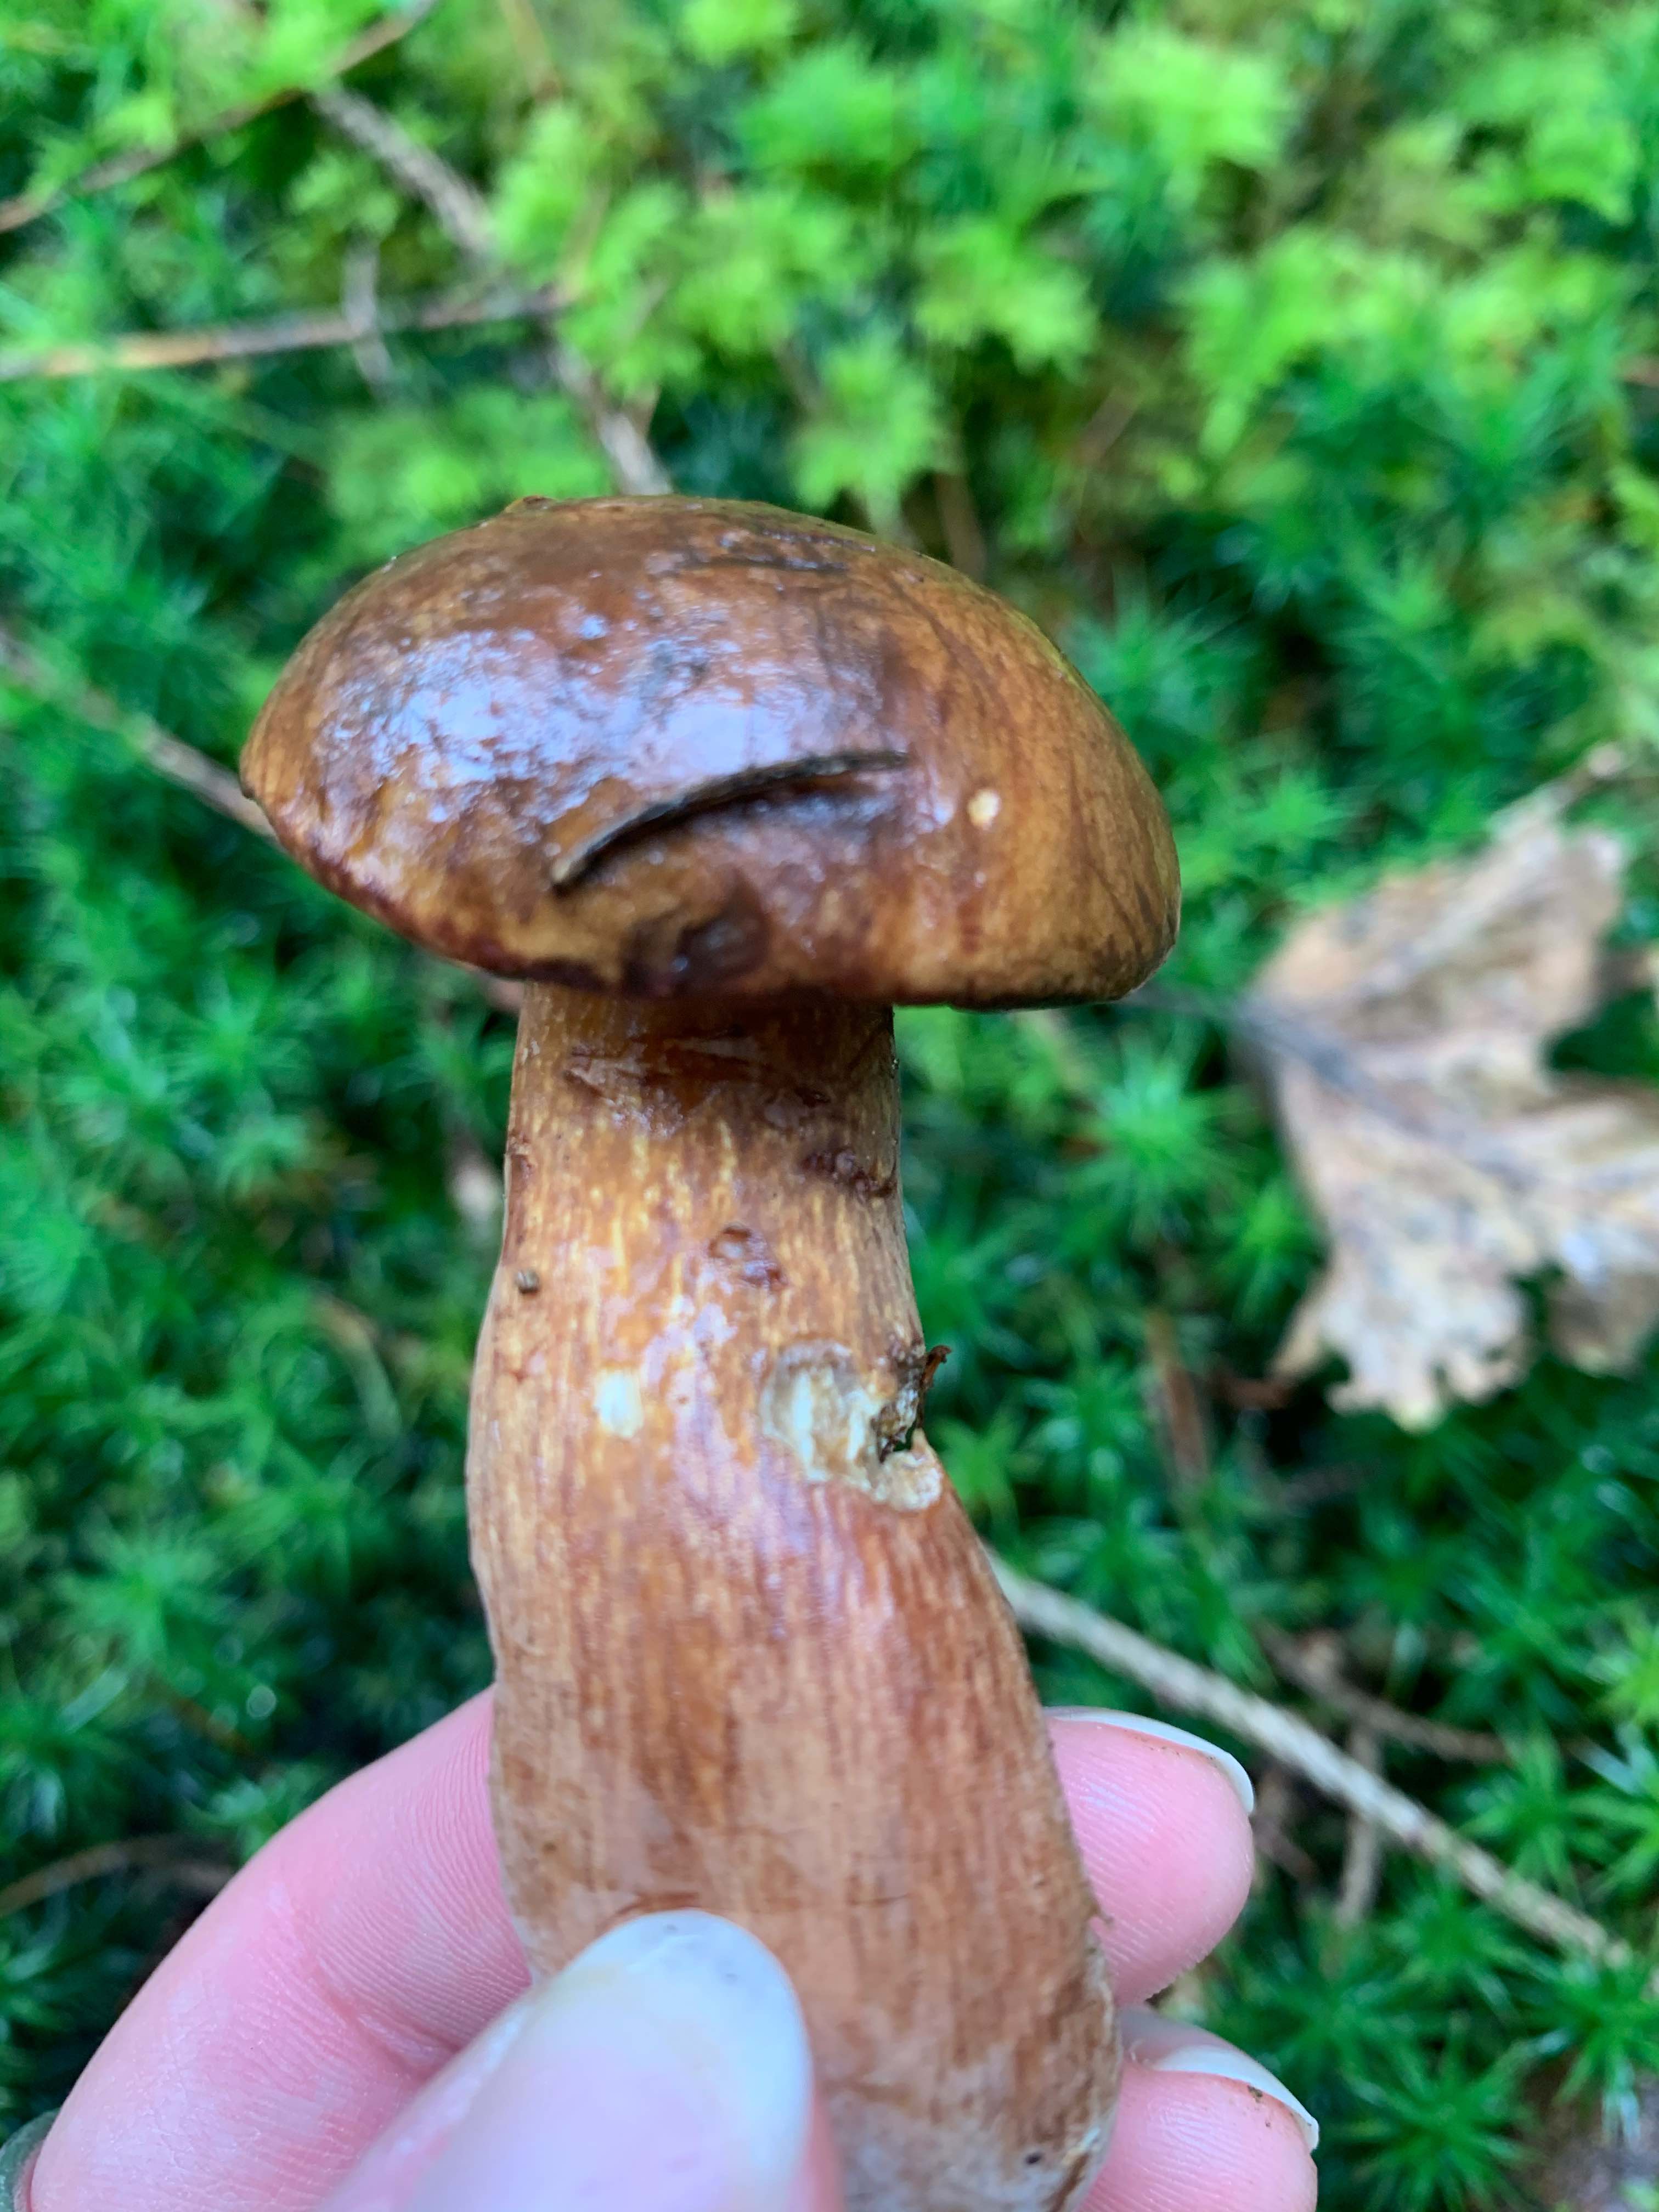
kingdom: Fungi
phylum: Basidiomycota
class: Agaricomycetes
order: Boletales
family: Boletaceae
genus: Imleria
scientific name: Imleria badia
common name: brunstokket rørhat
